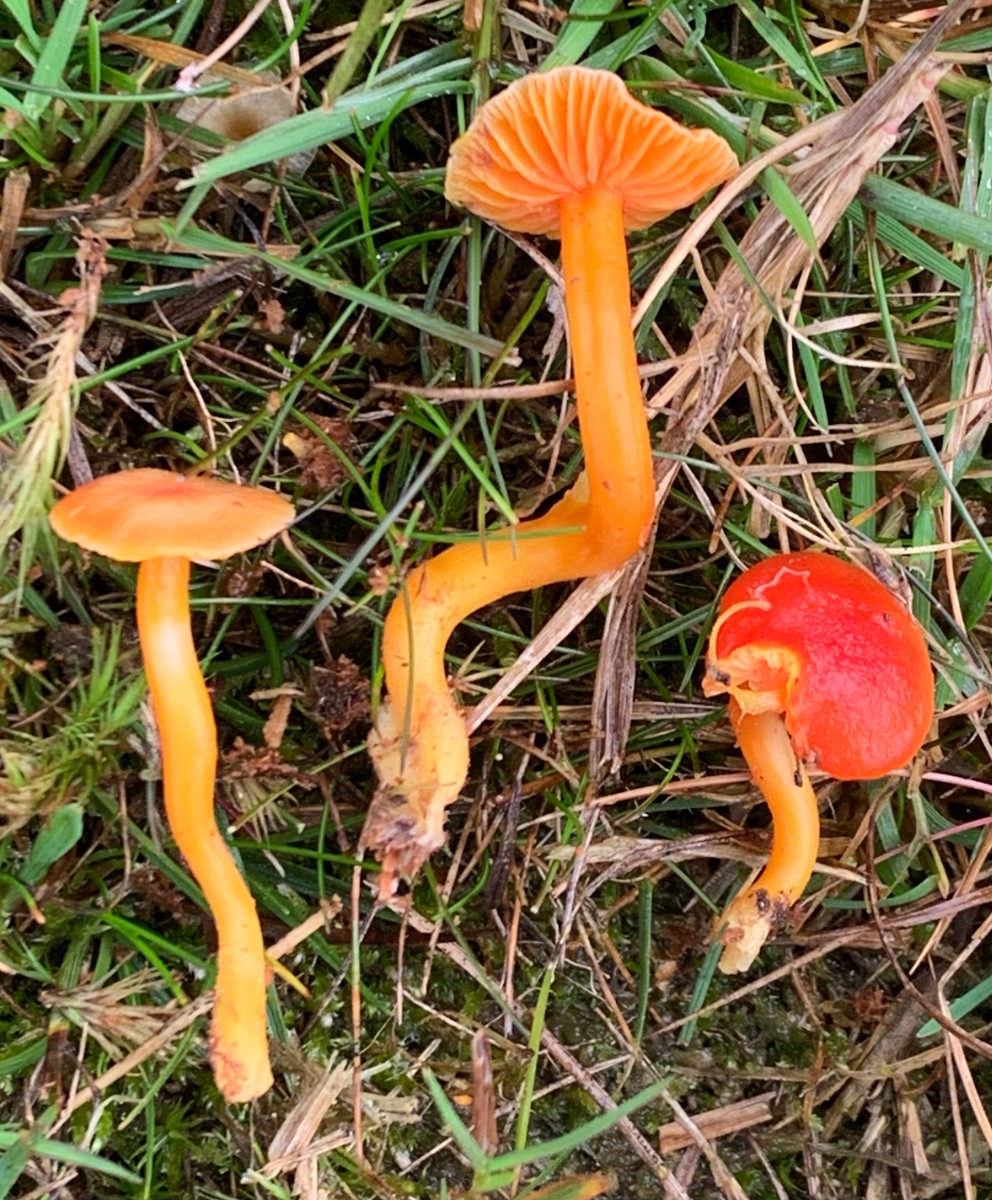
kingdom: Fungi
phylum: Basidiomycota
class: Agaricomycetes
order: Agaricales
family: Hygrophoraceae
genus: Hygrocybe
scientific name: Hygrocybe miniata
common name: mønje-vokshat
